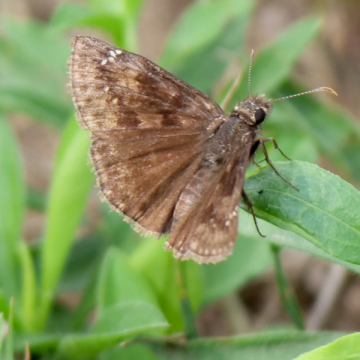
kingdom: Animalia
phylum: Arthropoda
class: Insecta
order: Lepidoptera
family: Hesperiidae
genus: Gesta
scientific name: Gesta
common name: Wild Indigo Duskywing
